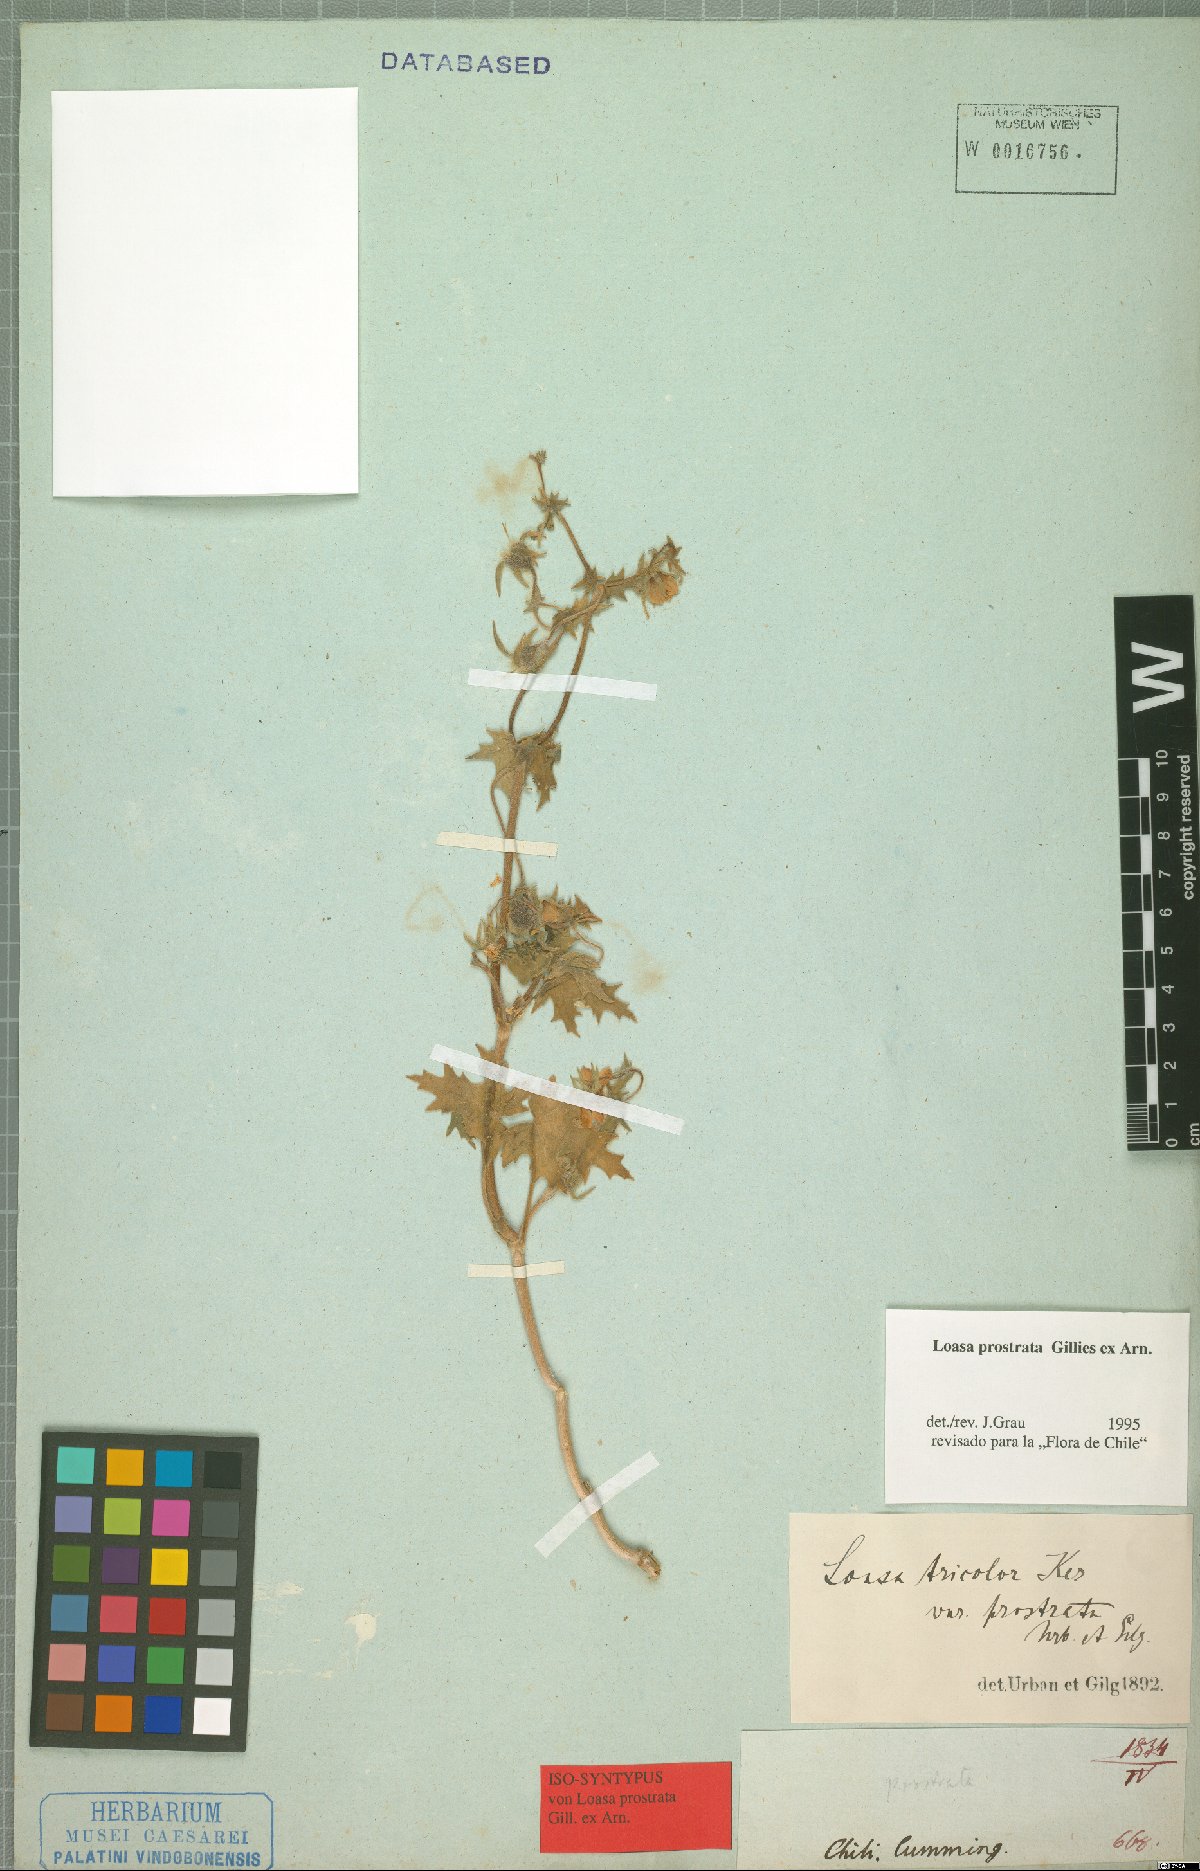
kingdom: Plantae
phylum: Tracheophyta
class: Magnoliopsida
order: Cornales
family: Loasaceae
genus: Loasa
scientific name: Loasa prostrata
